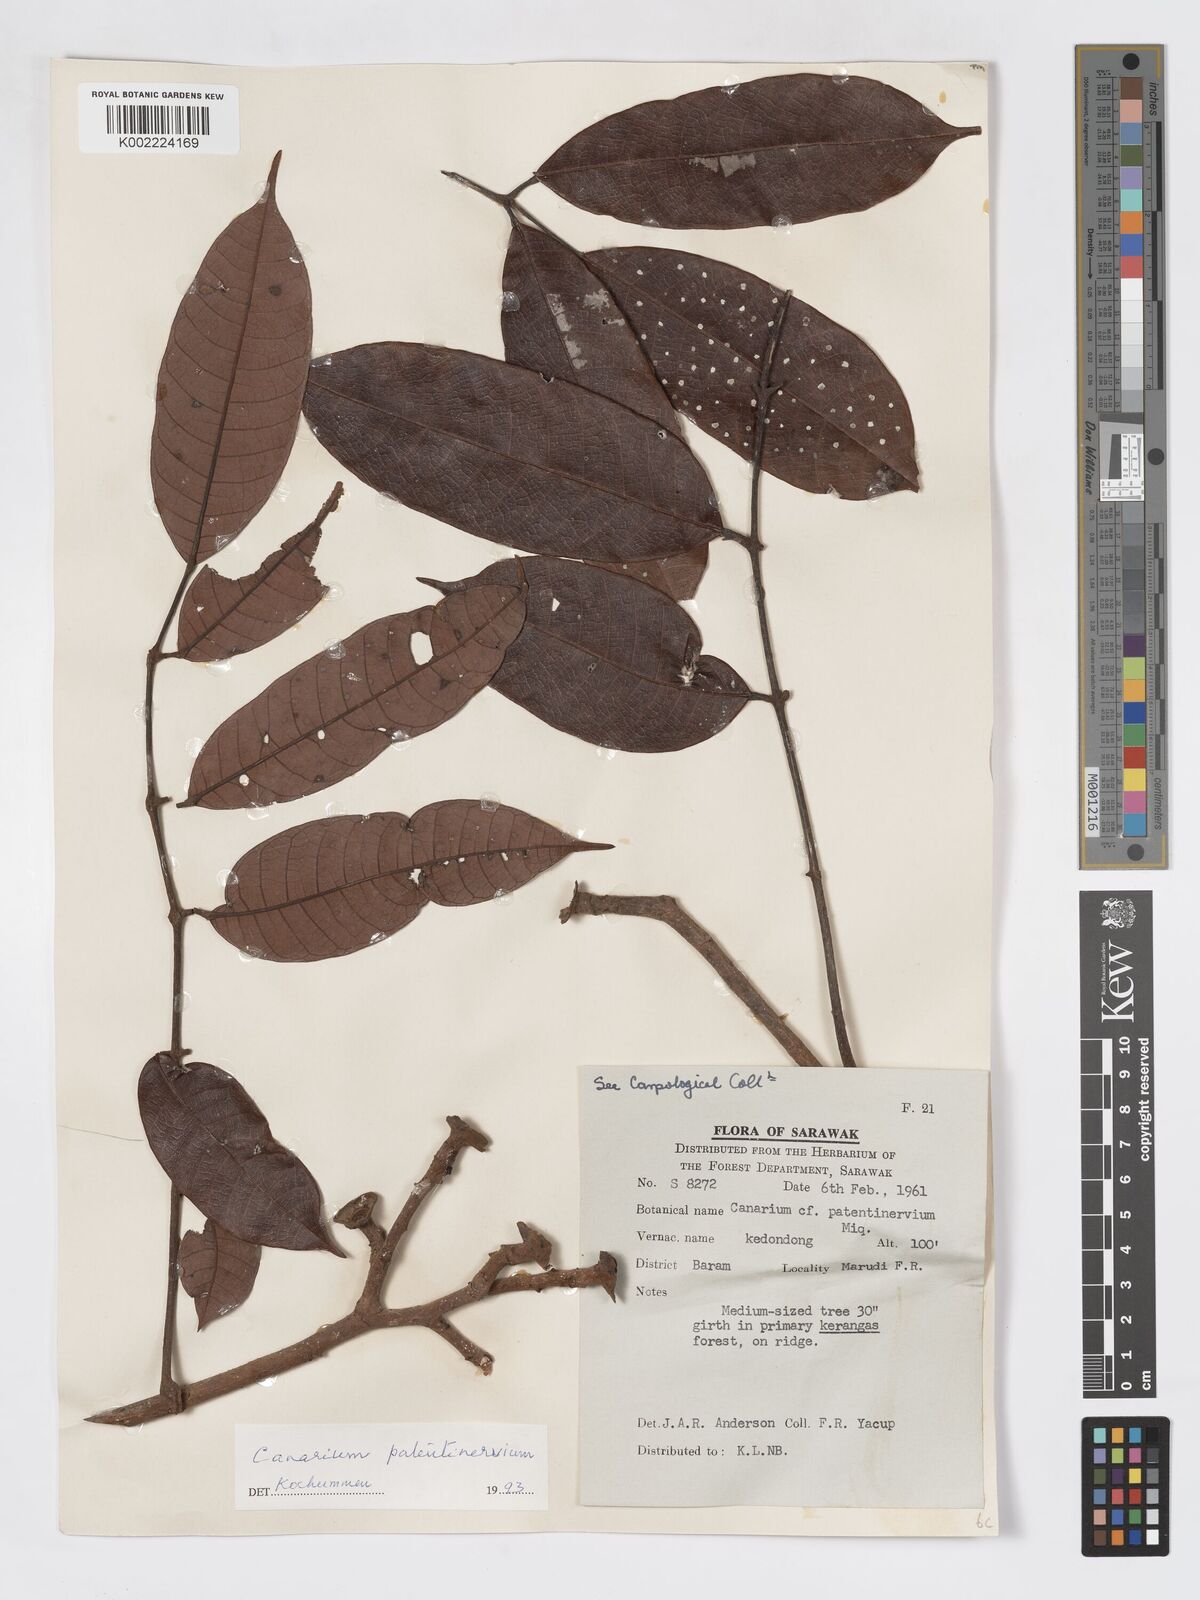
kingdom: Plantae
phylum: Tracheophyta
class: Magnoliopsida
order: Sapindales
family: Burseraceae
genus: Canarium
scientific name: Canarium patentinervium
